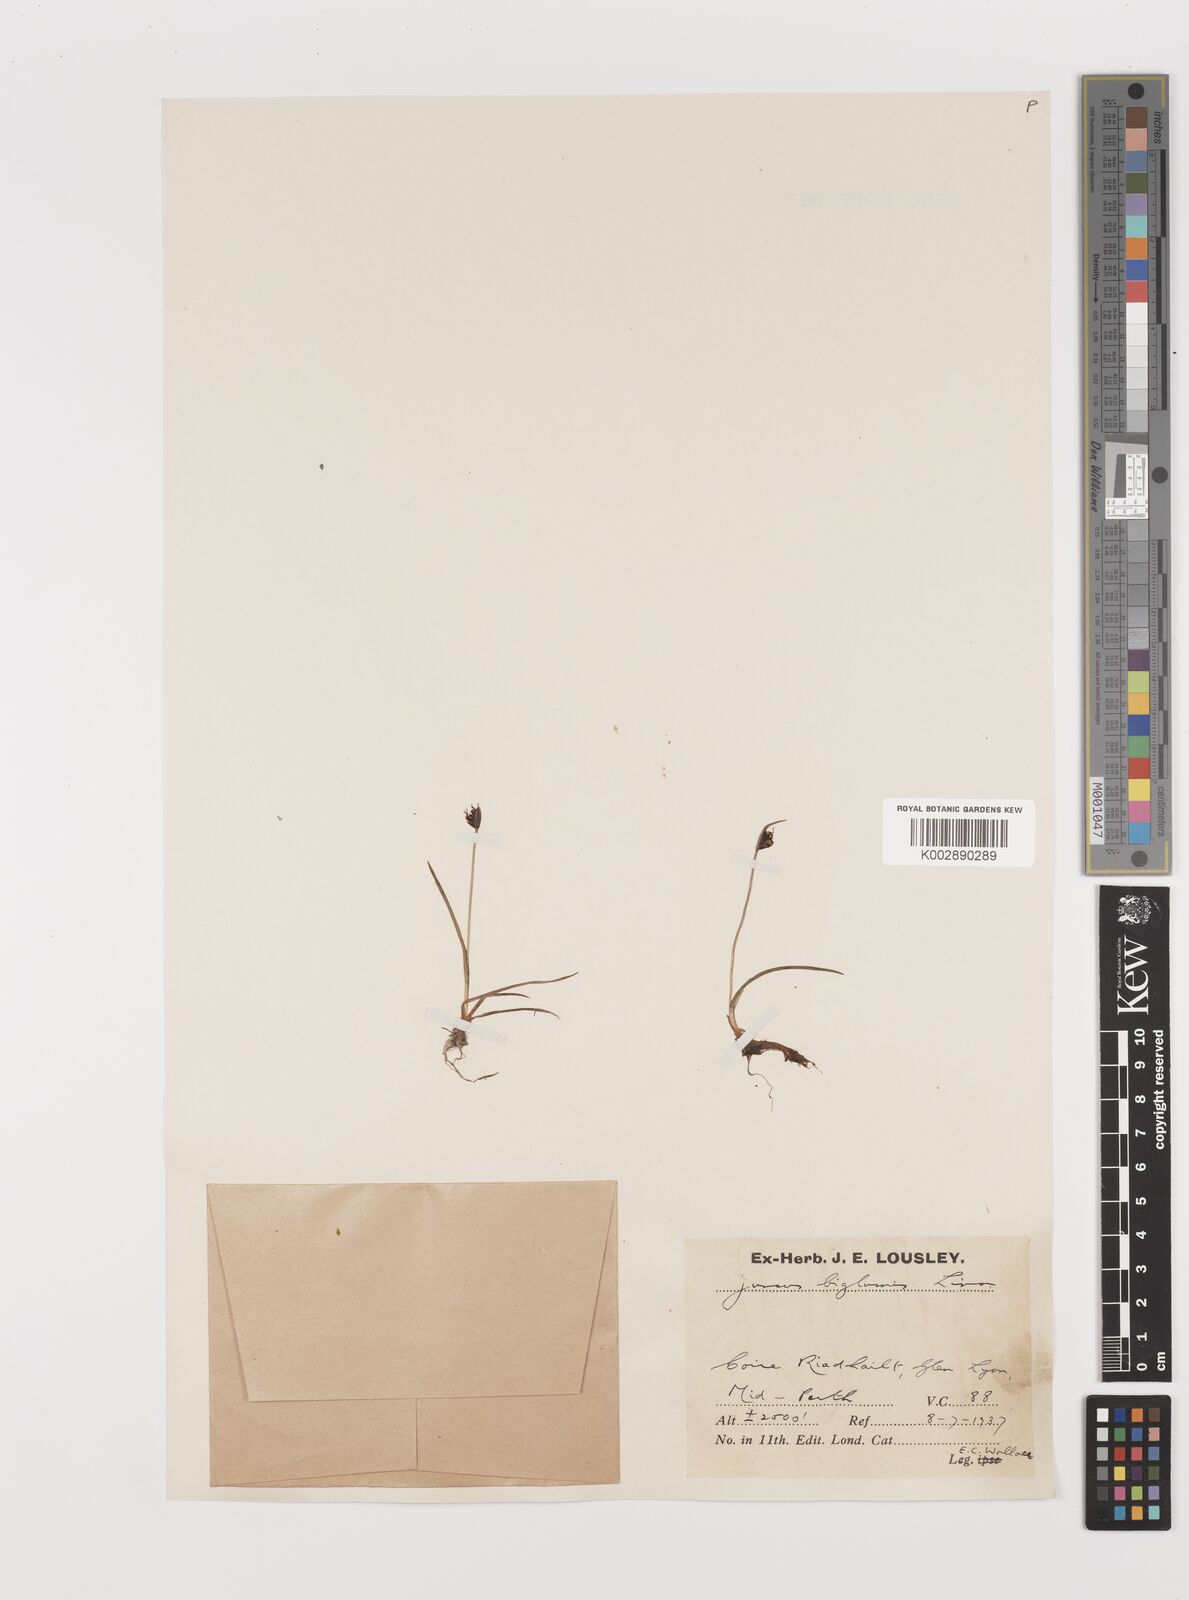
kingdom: Plantae
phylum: Tracheophyta
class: Liliopsida
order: Poales
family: Juncaceae
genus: Juncus
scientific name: Juncus biglumis
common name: Two-flowered rush
